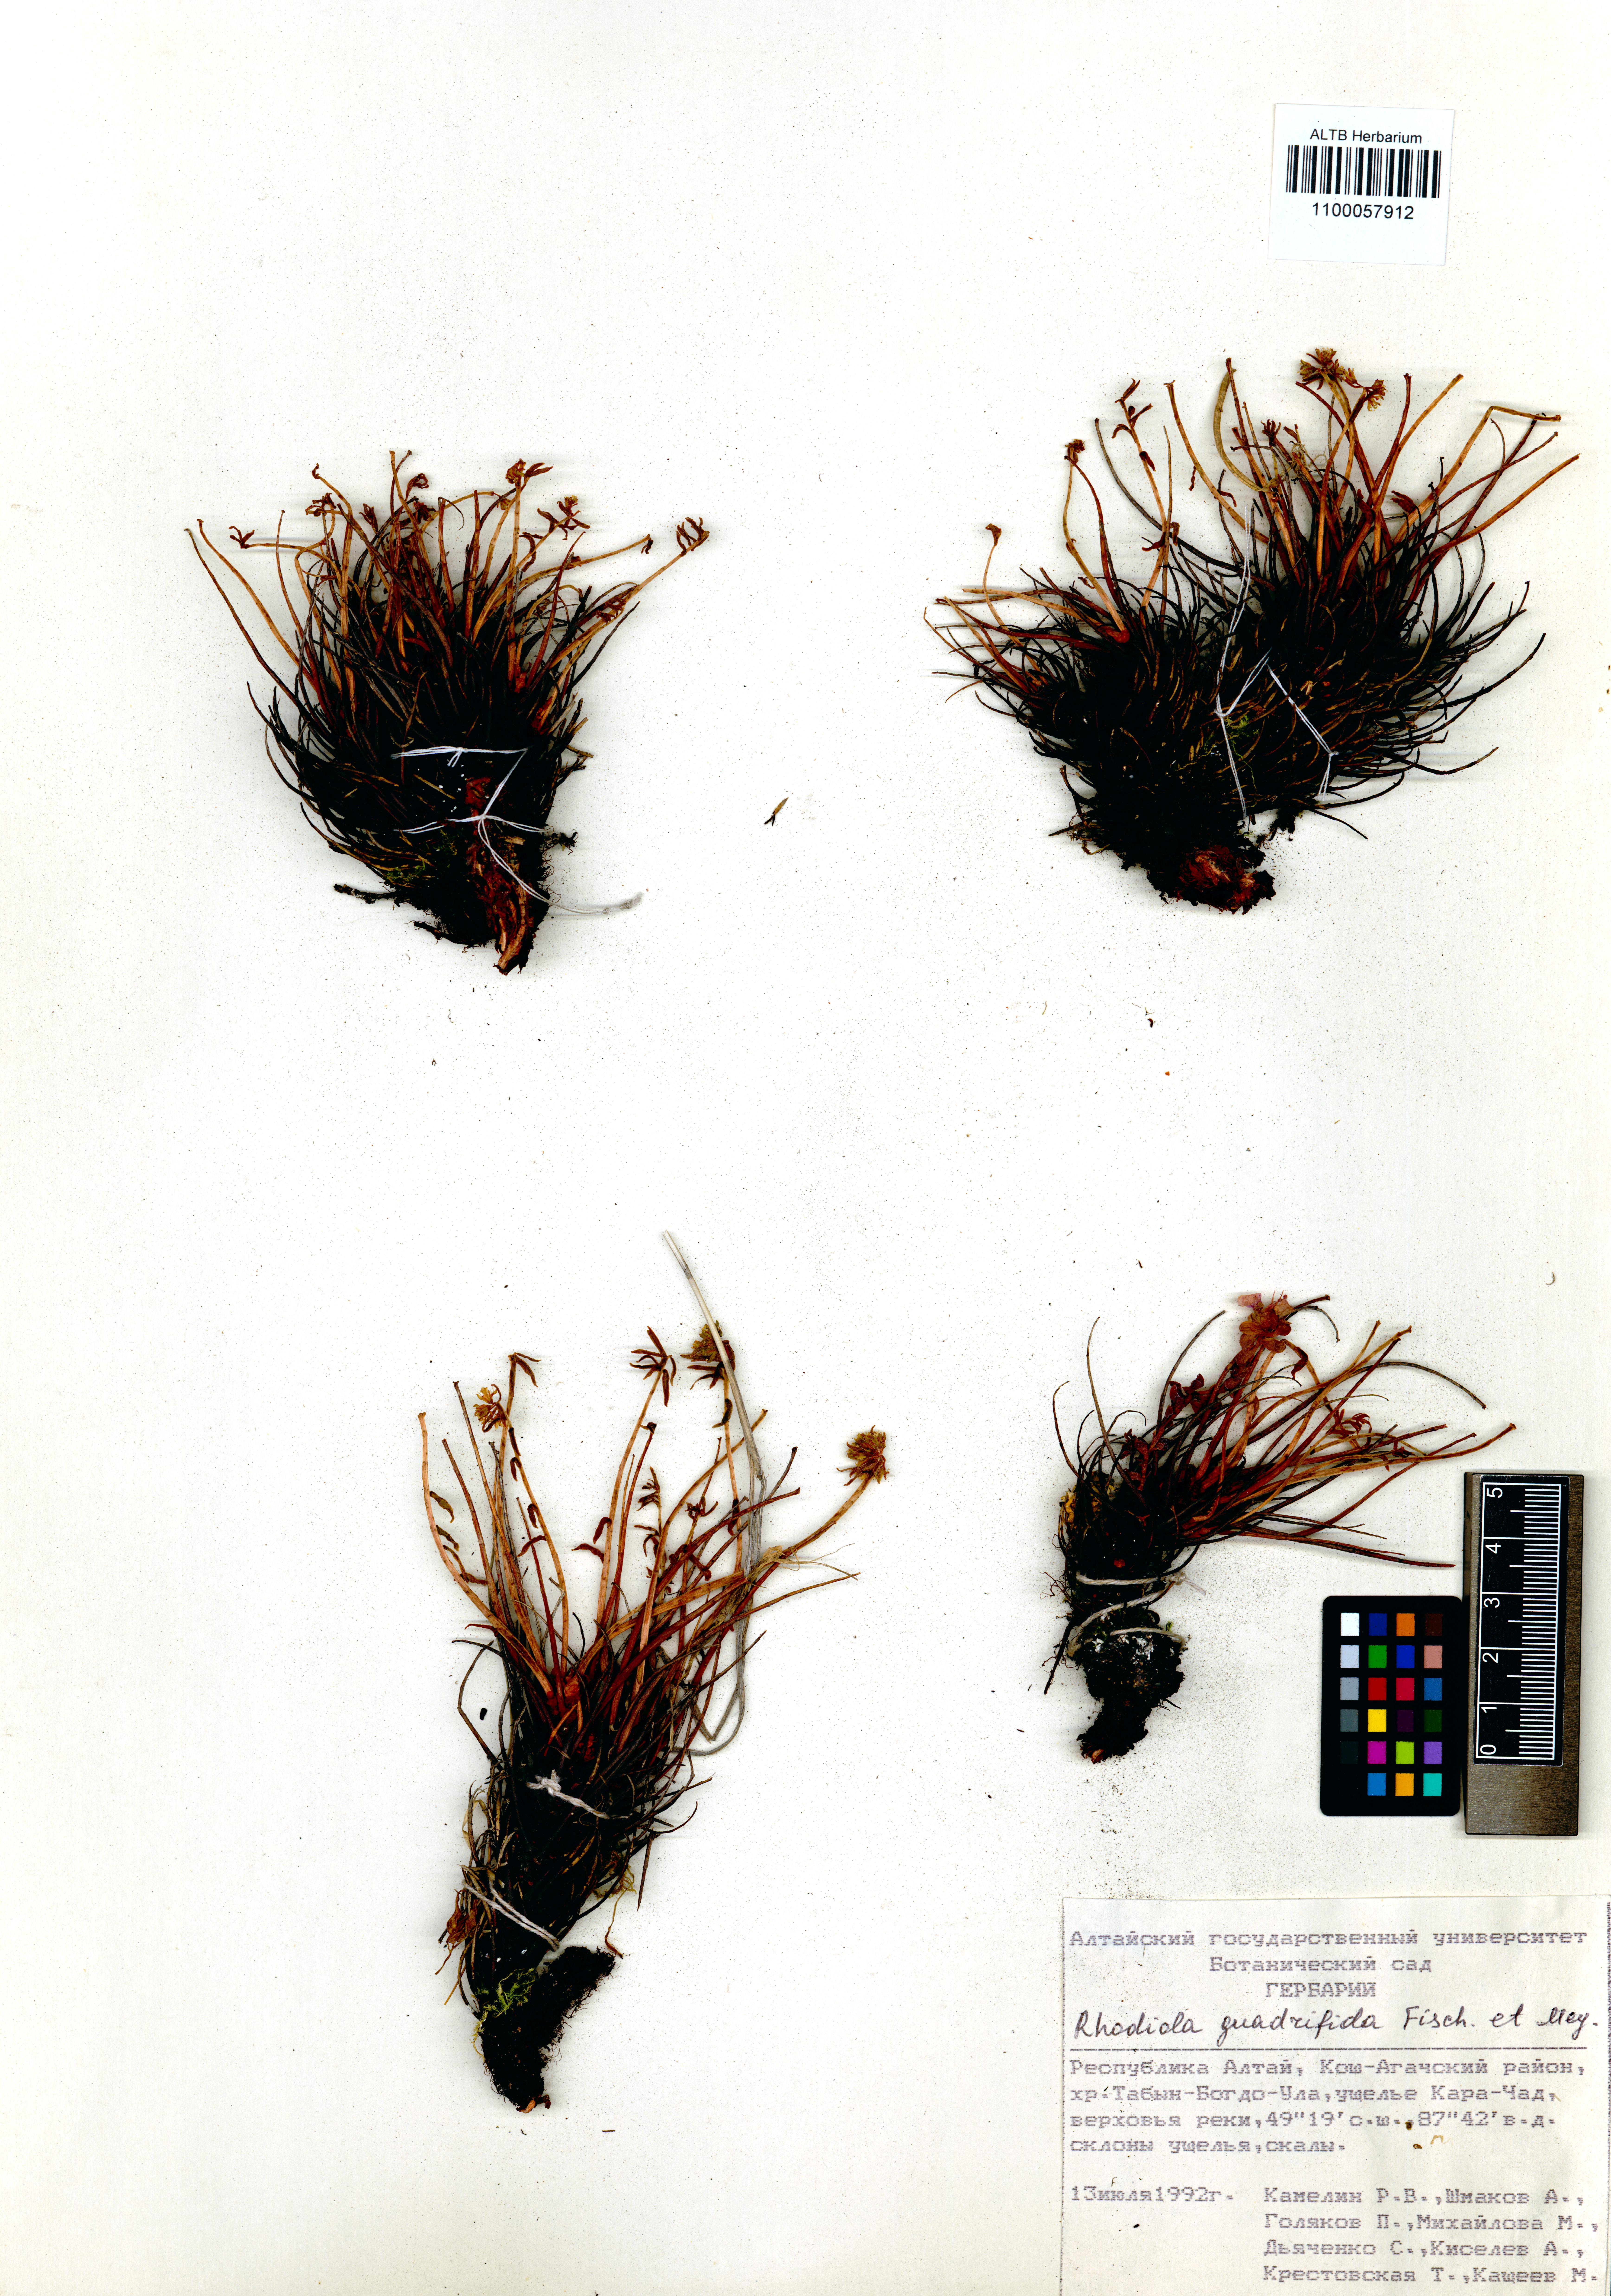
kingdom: Plantae
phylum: Tracheophyta
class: Magnoliopsida
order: Saxifragales
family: Crassulaceae
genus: Rhodiola
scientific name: Rhodiola quadrifida
